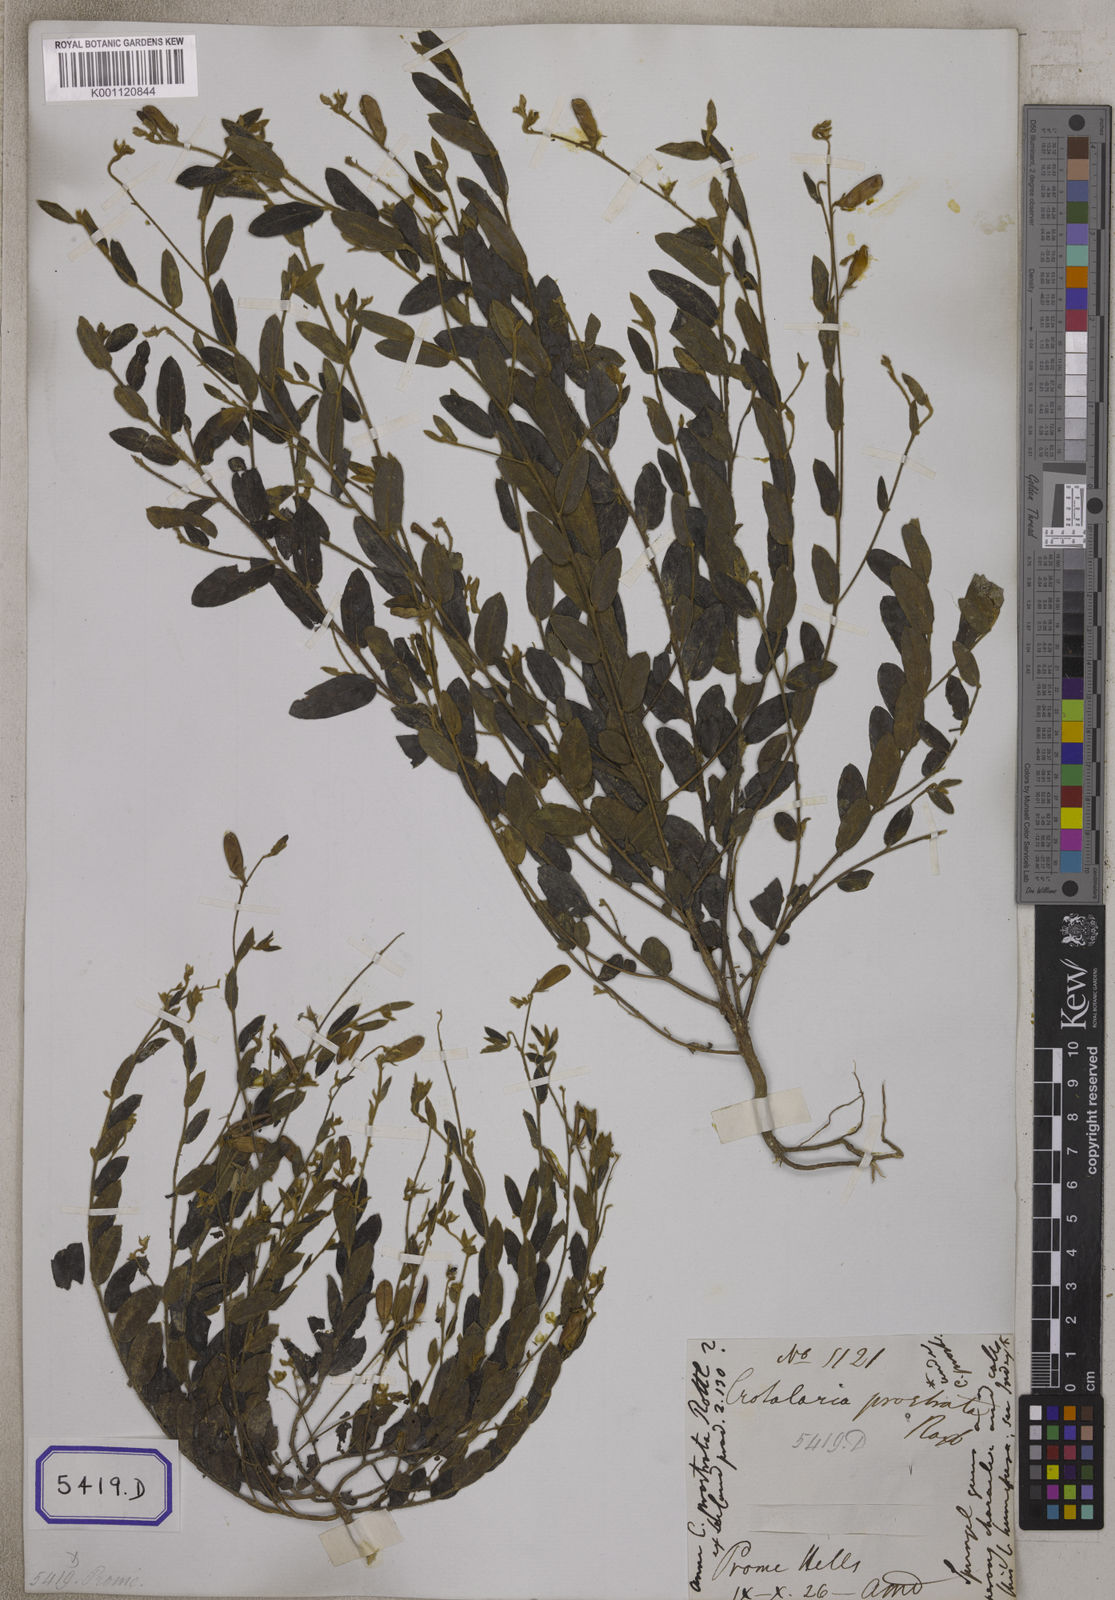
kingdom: Plantae
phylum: Tracheophyta
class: Magnoliopsida
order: Fabales
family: Fabaceae
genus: Crotalaria
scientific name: Crotalaria
